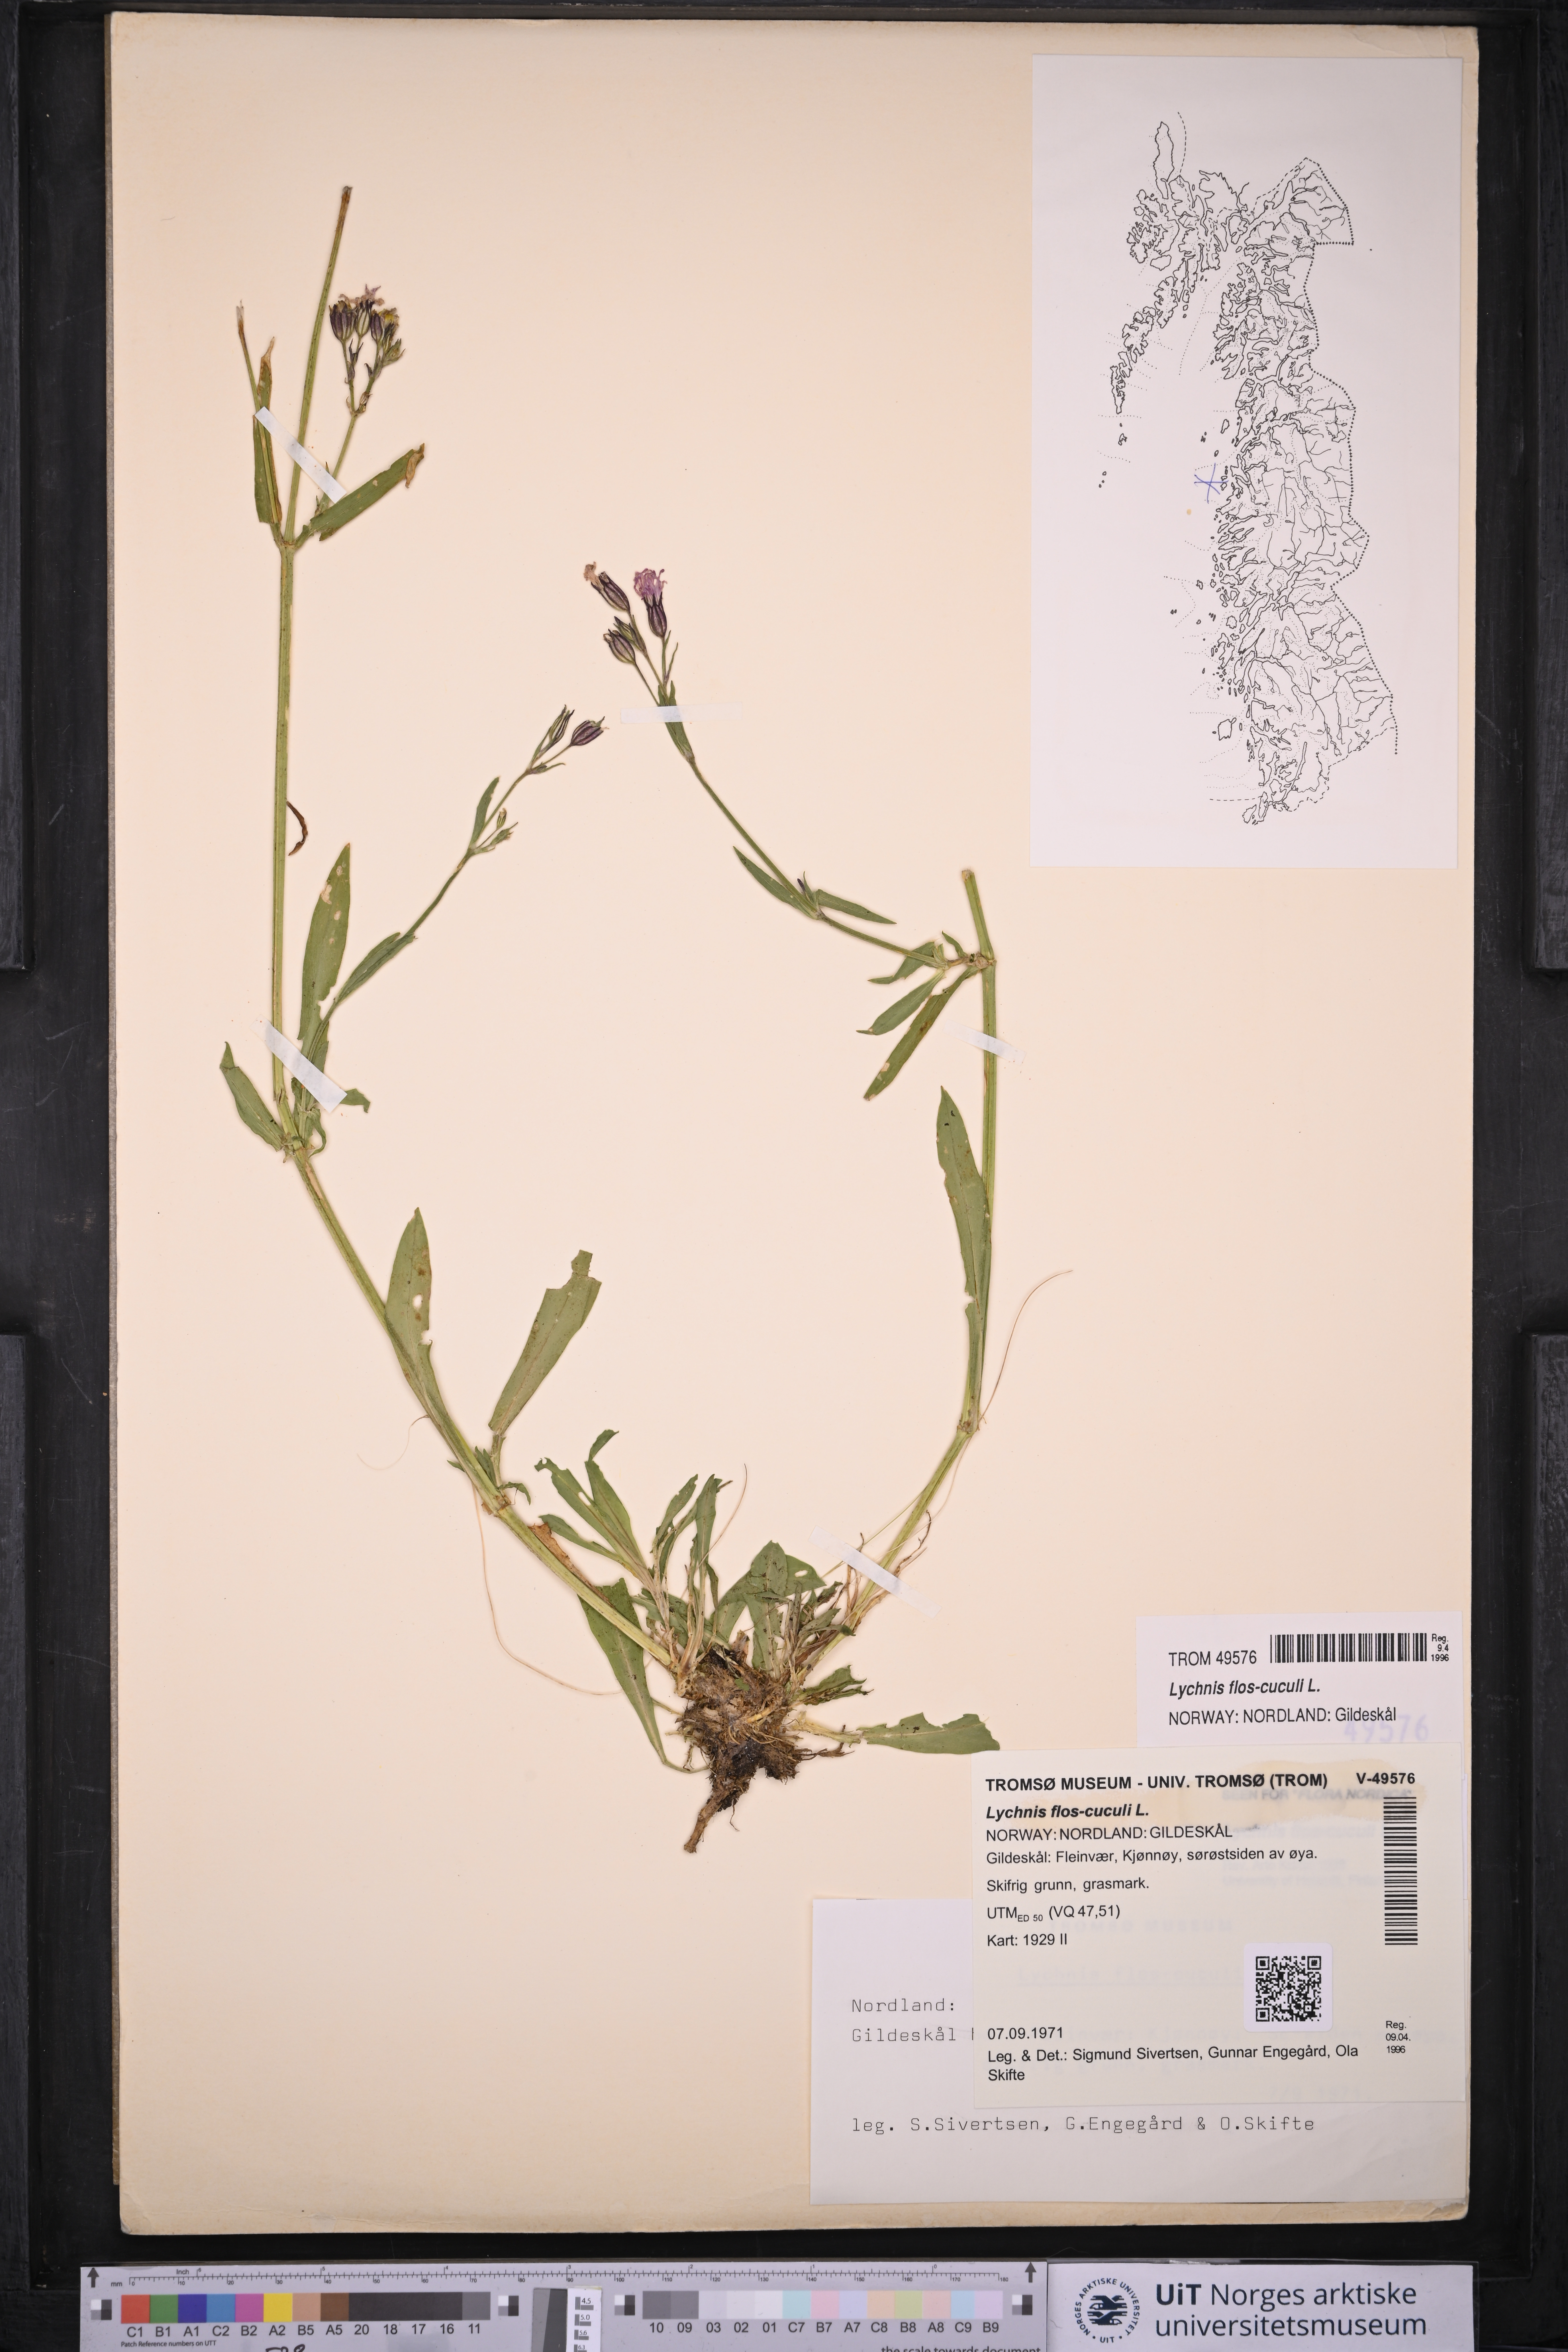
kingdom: Plantae
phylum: Tracheophyta
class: Magnoliopsida
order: Caryophyllales
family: Caryophyllaceae
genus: Silene
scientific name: Silene flos-cuculi
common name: Ragged-robin
